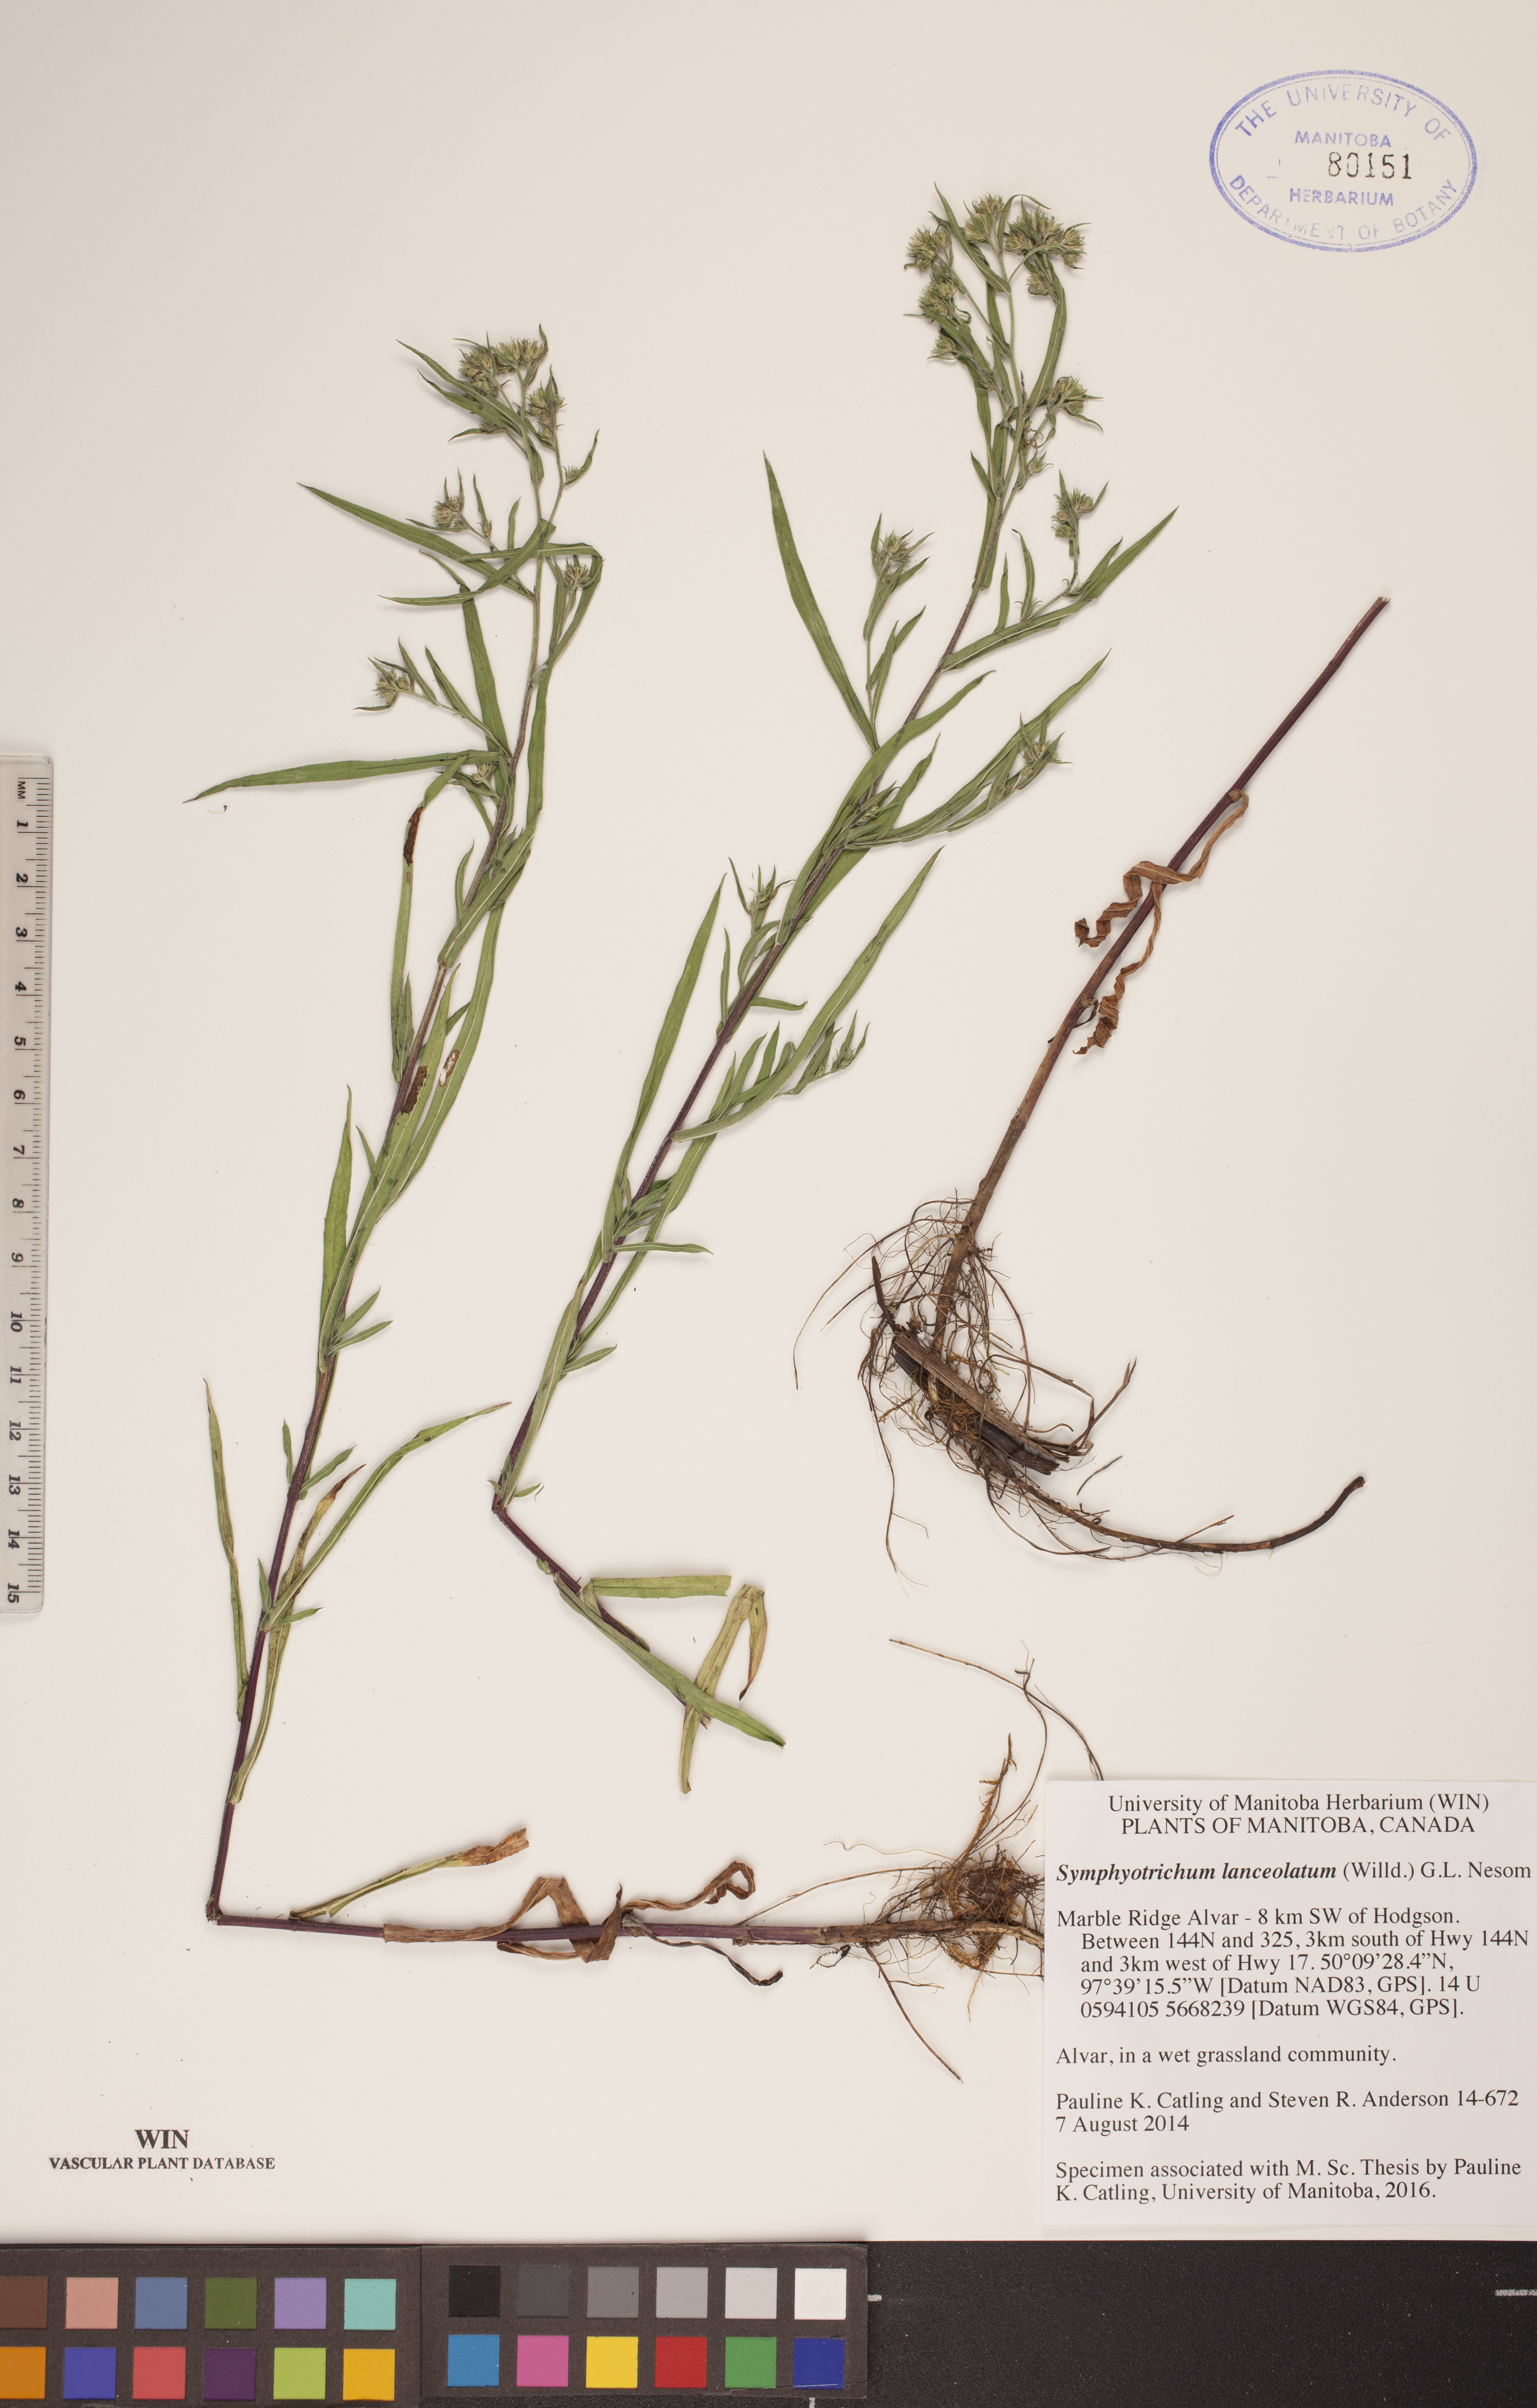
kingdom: Plantae
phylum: Tracheophyta
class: Magnoliopsida
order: Asterales
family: Asteraceae
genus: Symphyotrichum
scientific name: Symphyotrichum lanceolatum
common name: Panicled aster
